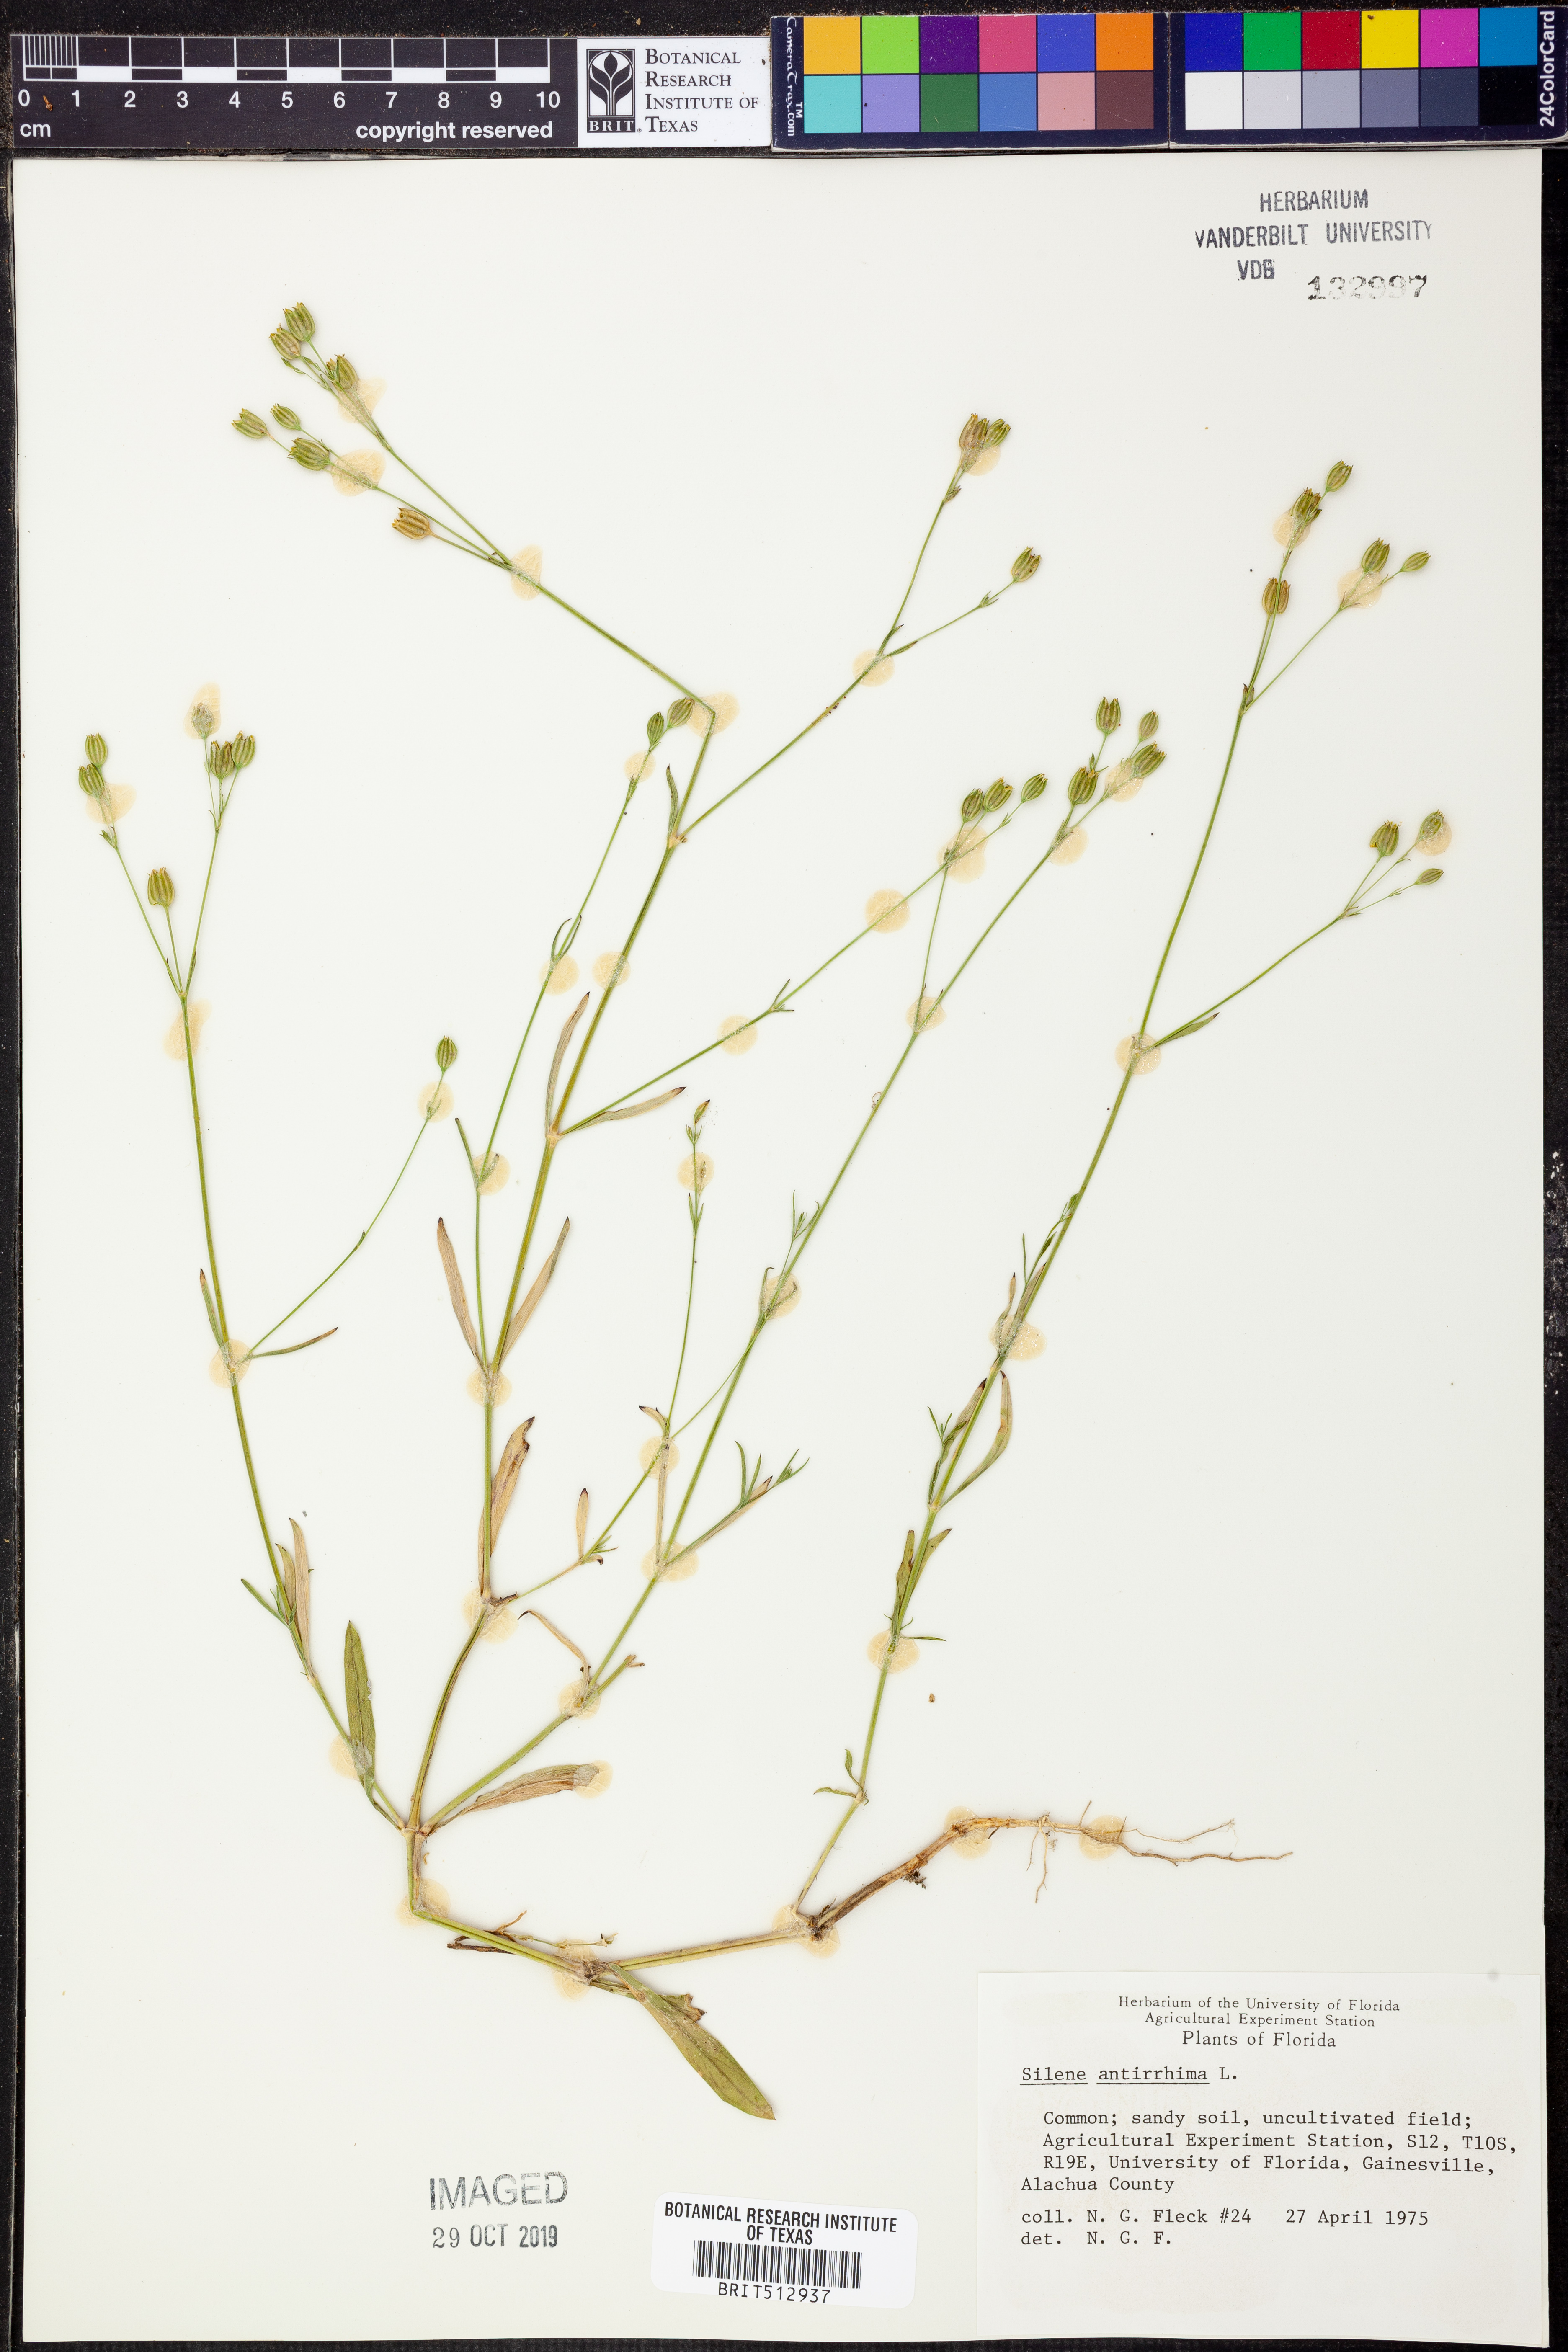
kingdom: Plantae
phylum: Tracheophyta
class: Magnoliopsida
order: Caryophyllales
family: Caryophyllaceae
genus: Silene
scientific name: Silene antirrhina
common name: Sleepy catchfly
